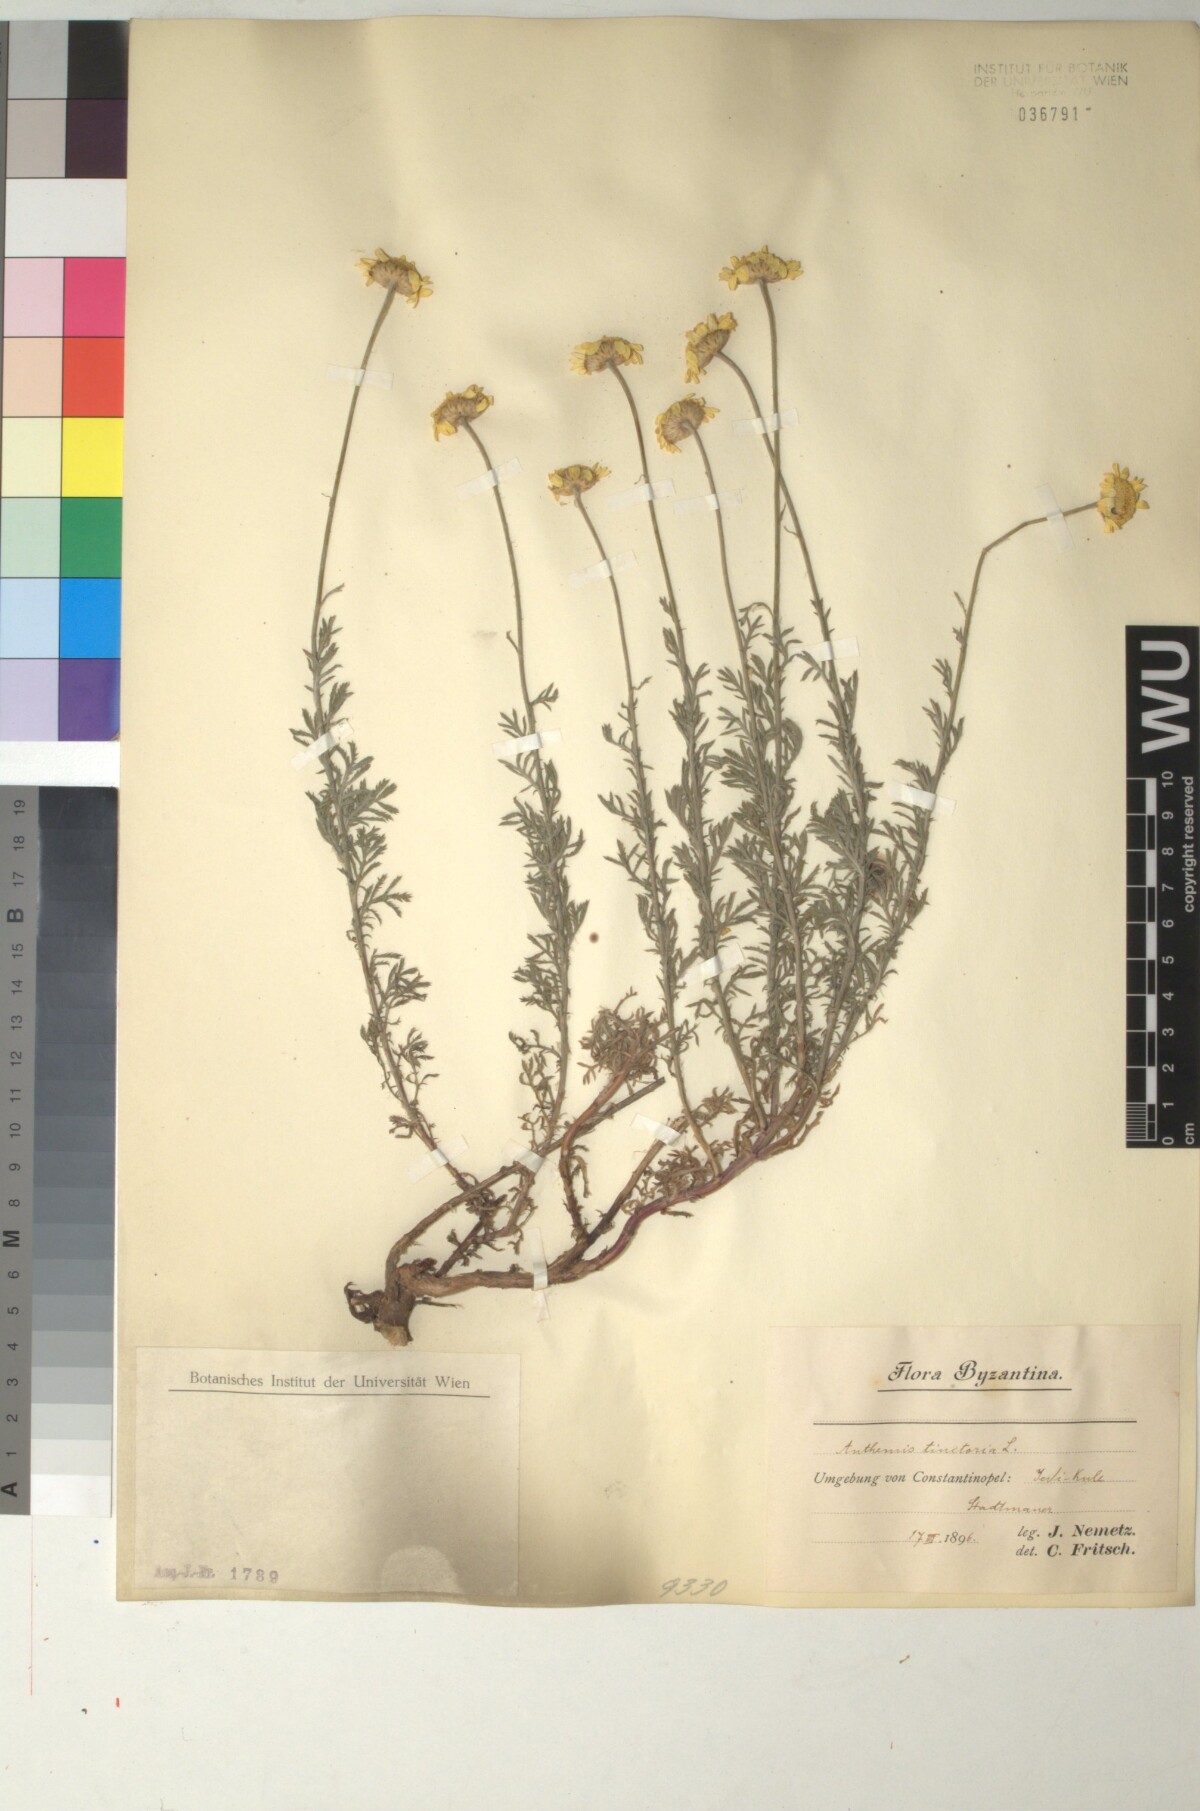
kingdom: Plantae
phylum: Tracheophyta
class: Magnoliopsida
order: Asterales
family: Asteraceae
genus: Cota
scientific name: Cota tinctoria
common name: Golden chamomile
